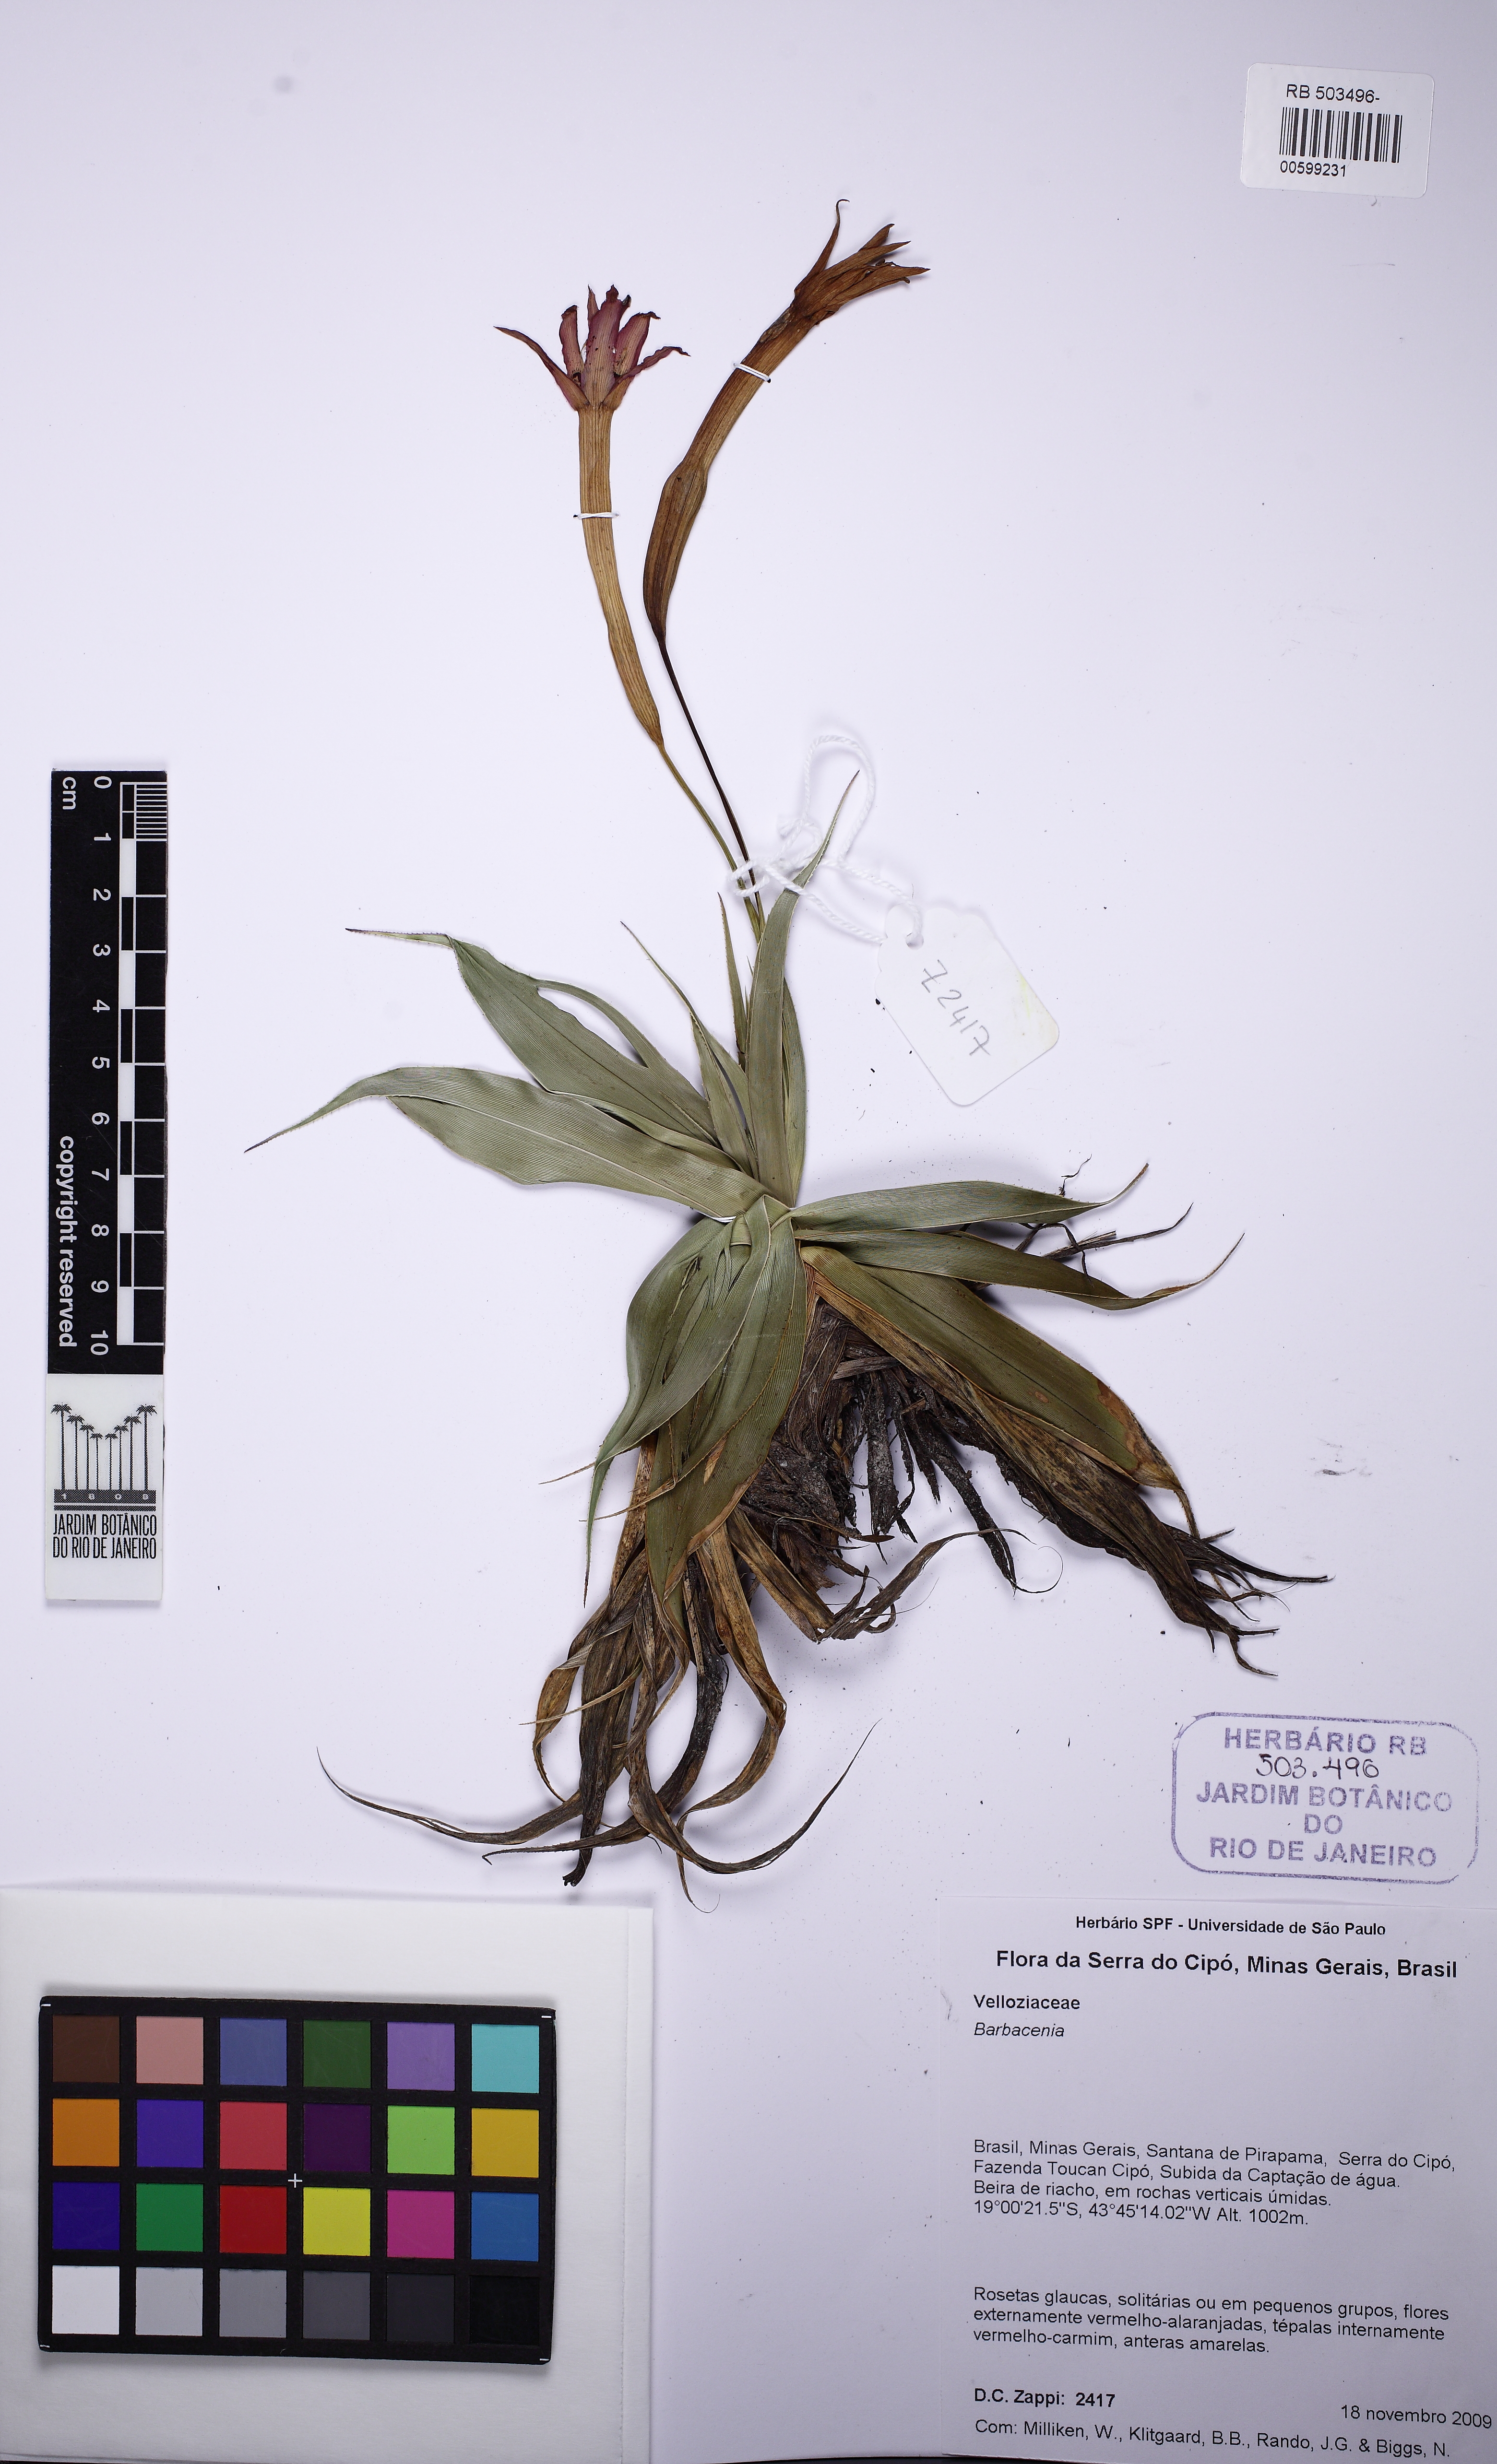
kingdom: Plantae
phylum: Tracheophyta
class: Liliopsida
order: Pandanales
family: Velloziaceae
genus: Barbacenia
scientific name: Barbacenia
